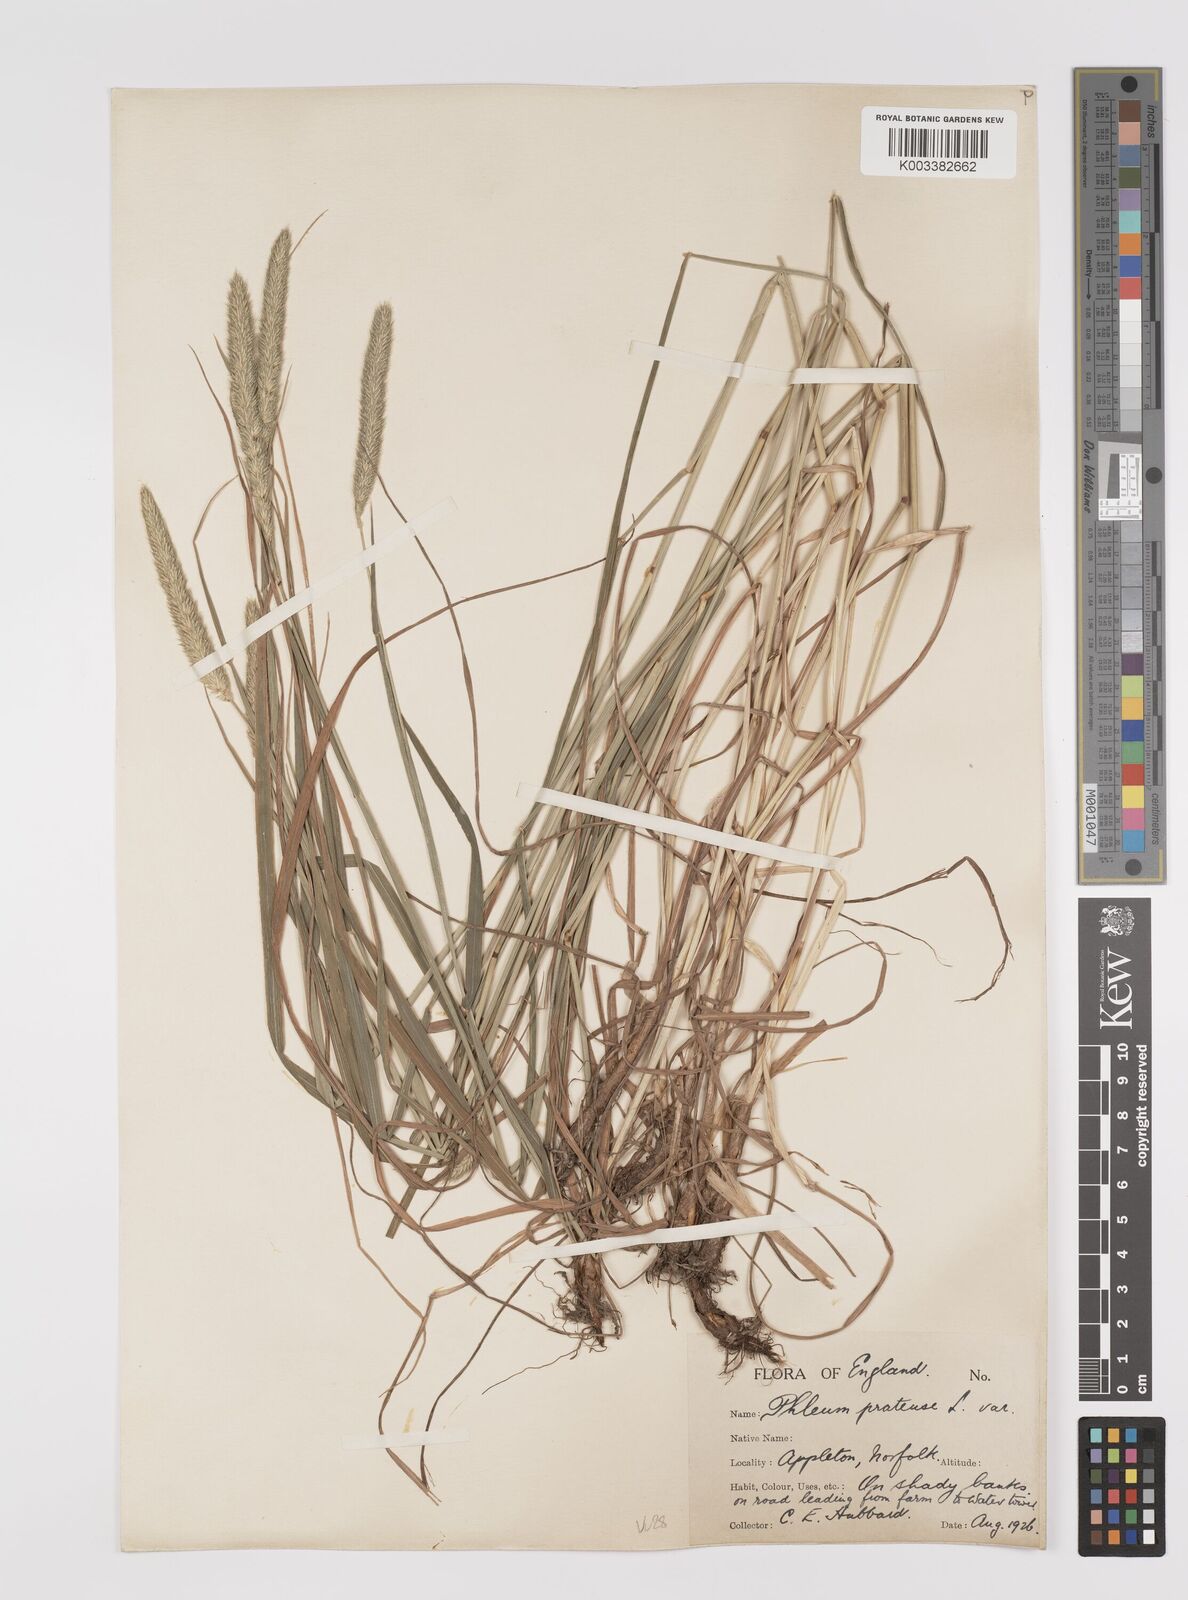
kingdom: Plantae
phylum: Tracheophyta
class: Liliopsida
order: Poales
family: Poaceae
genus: Phleum
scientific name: Phleum pratense
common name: Timothy grass
